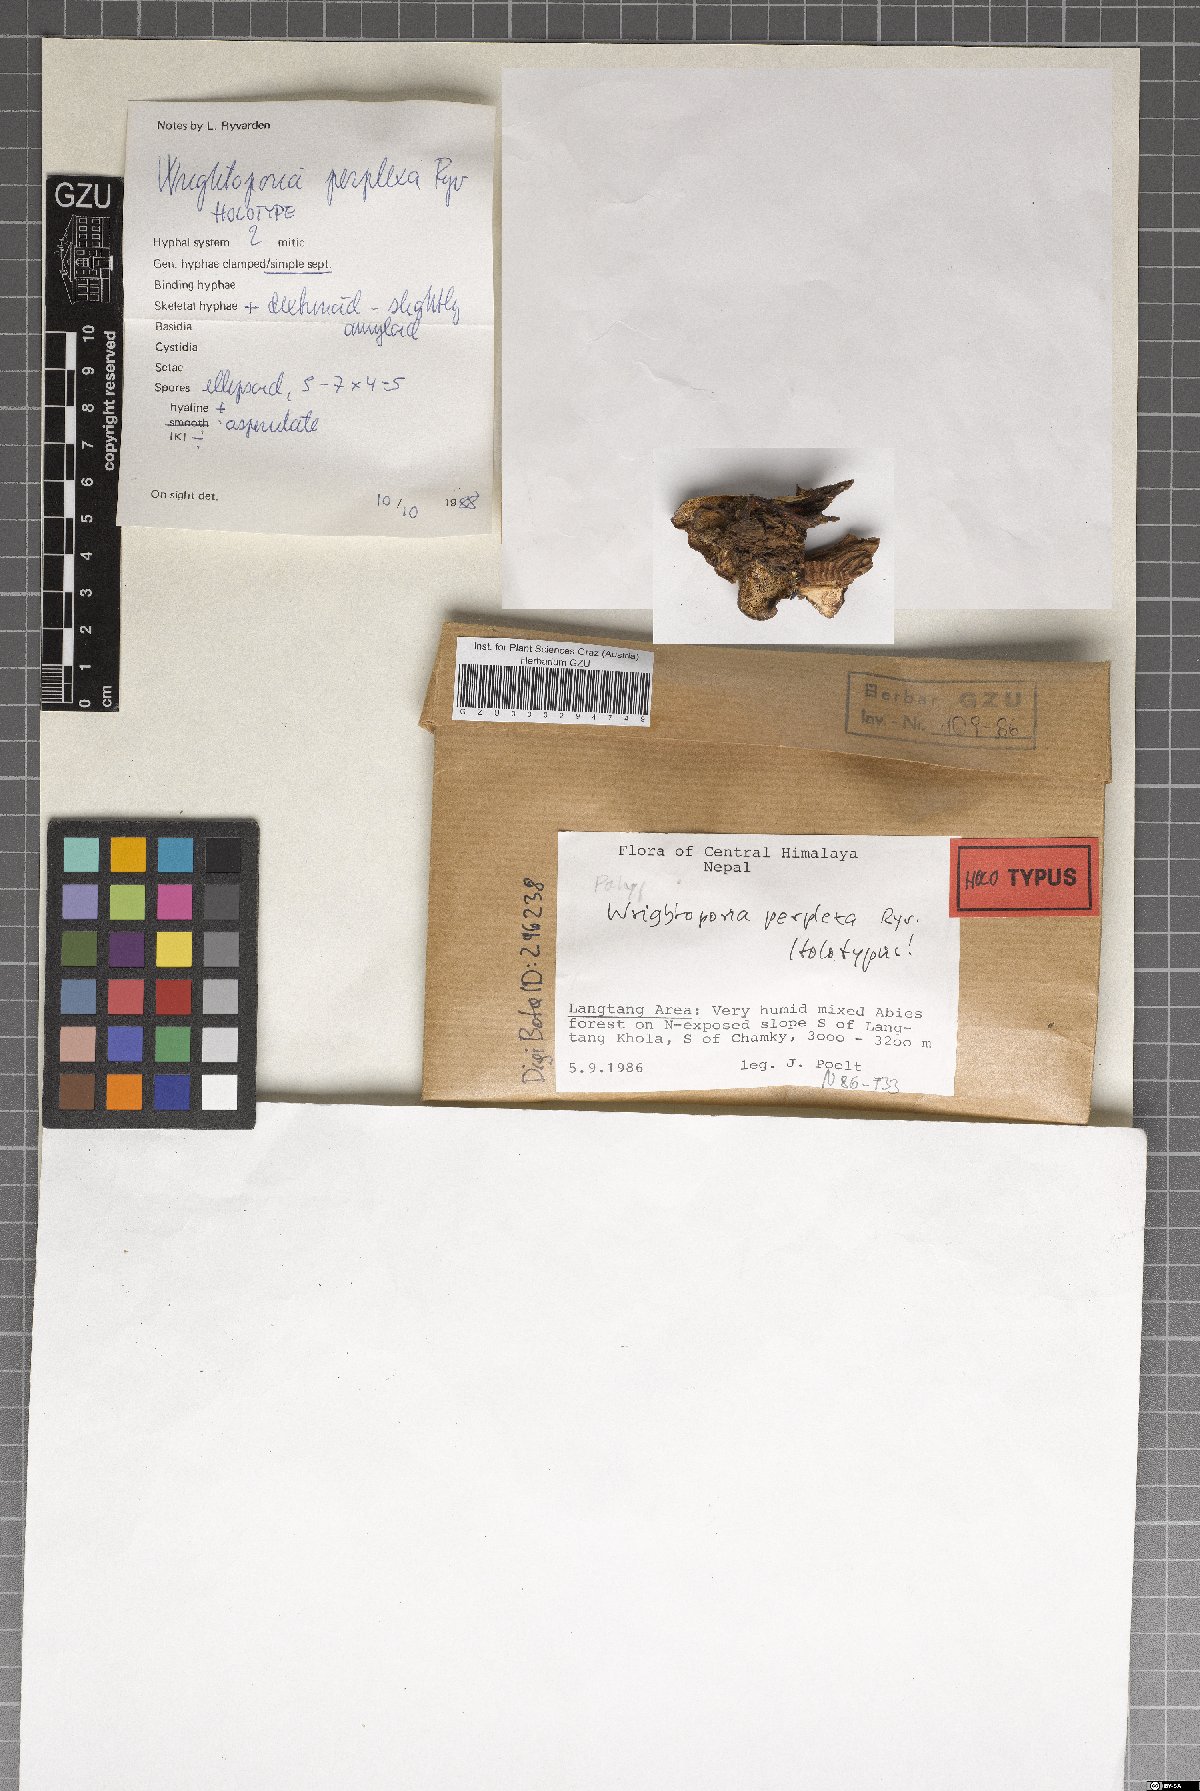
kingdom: Fungi
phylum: Basidiomycota
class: Agaricomycetes
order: Russulales
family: Bondarzewiaceae
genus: Wrightoporia
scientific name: Wrightoporia perplexa
